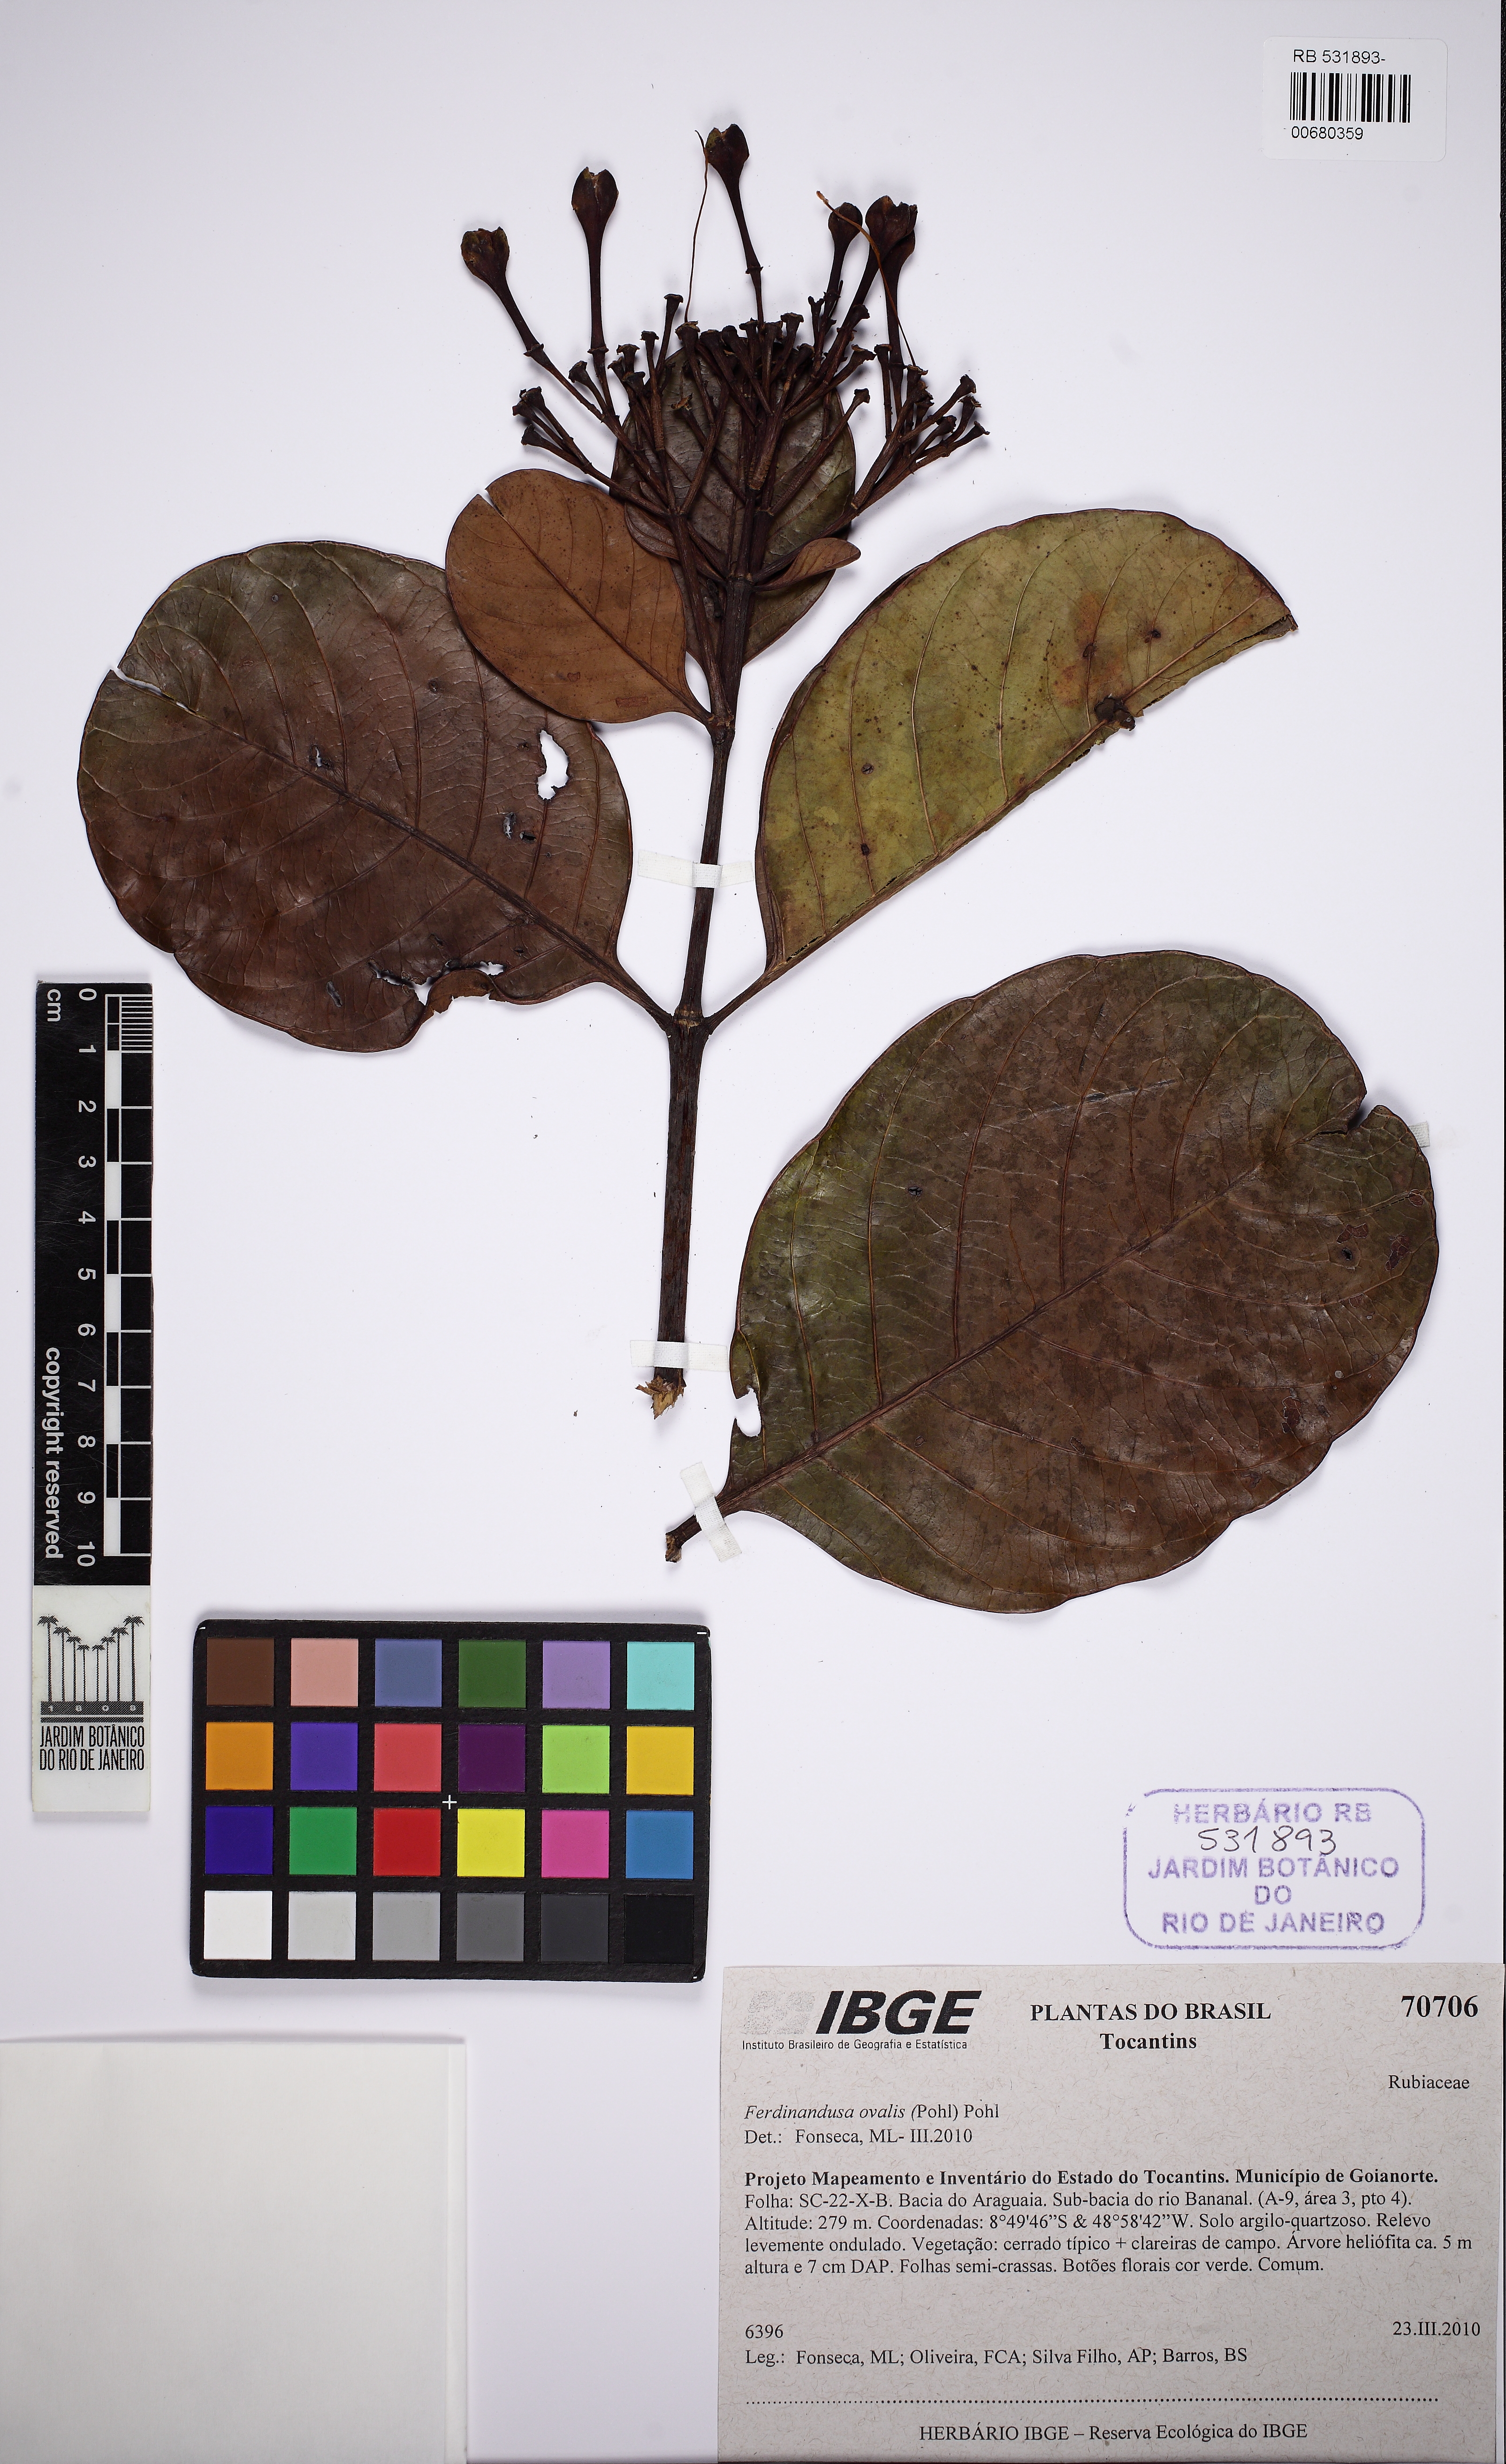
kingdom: Plantae
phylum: Tracheophyta
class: Magnoliopsida
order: Gentianales
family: Rubiaceae
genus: Ferdinandusa
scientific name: Ferdinandusa elliptica
